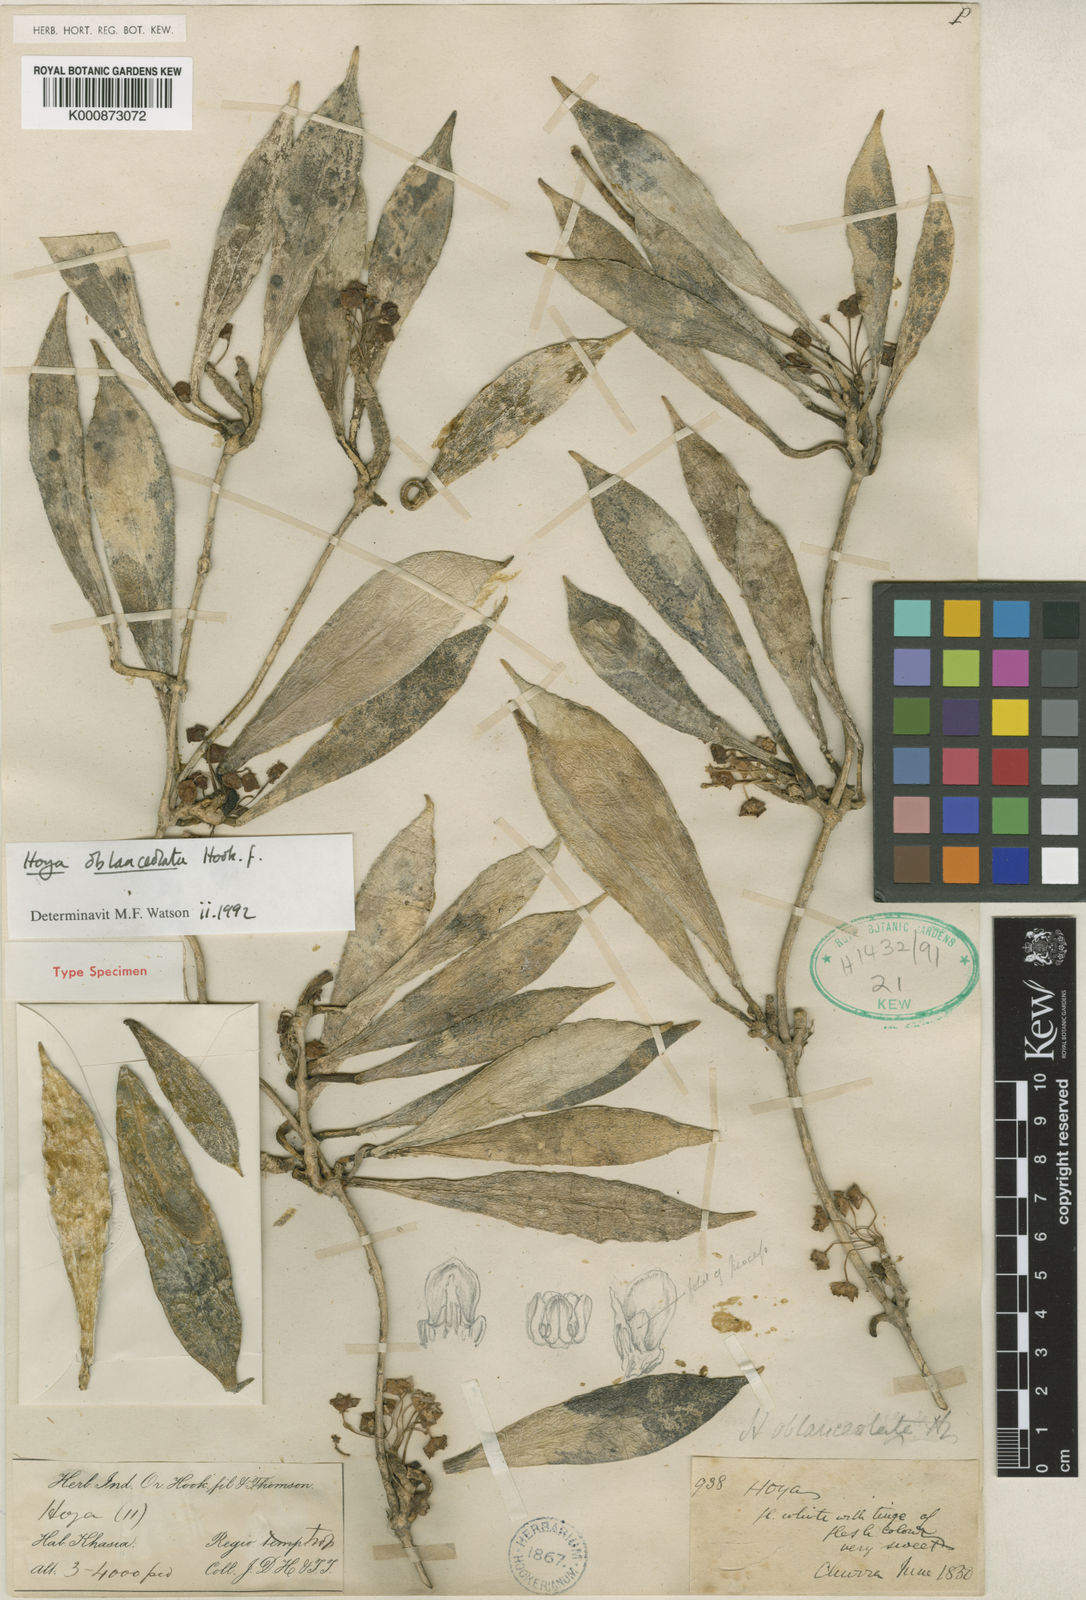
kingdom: Plantae
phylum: Tracheophyta
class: Magnoliopsida
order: Gentianales
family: Apocynaceae
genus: Hoya
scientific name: Hoya oblanceolata
